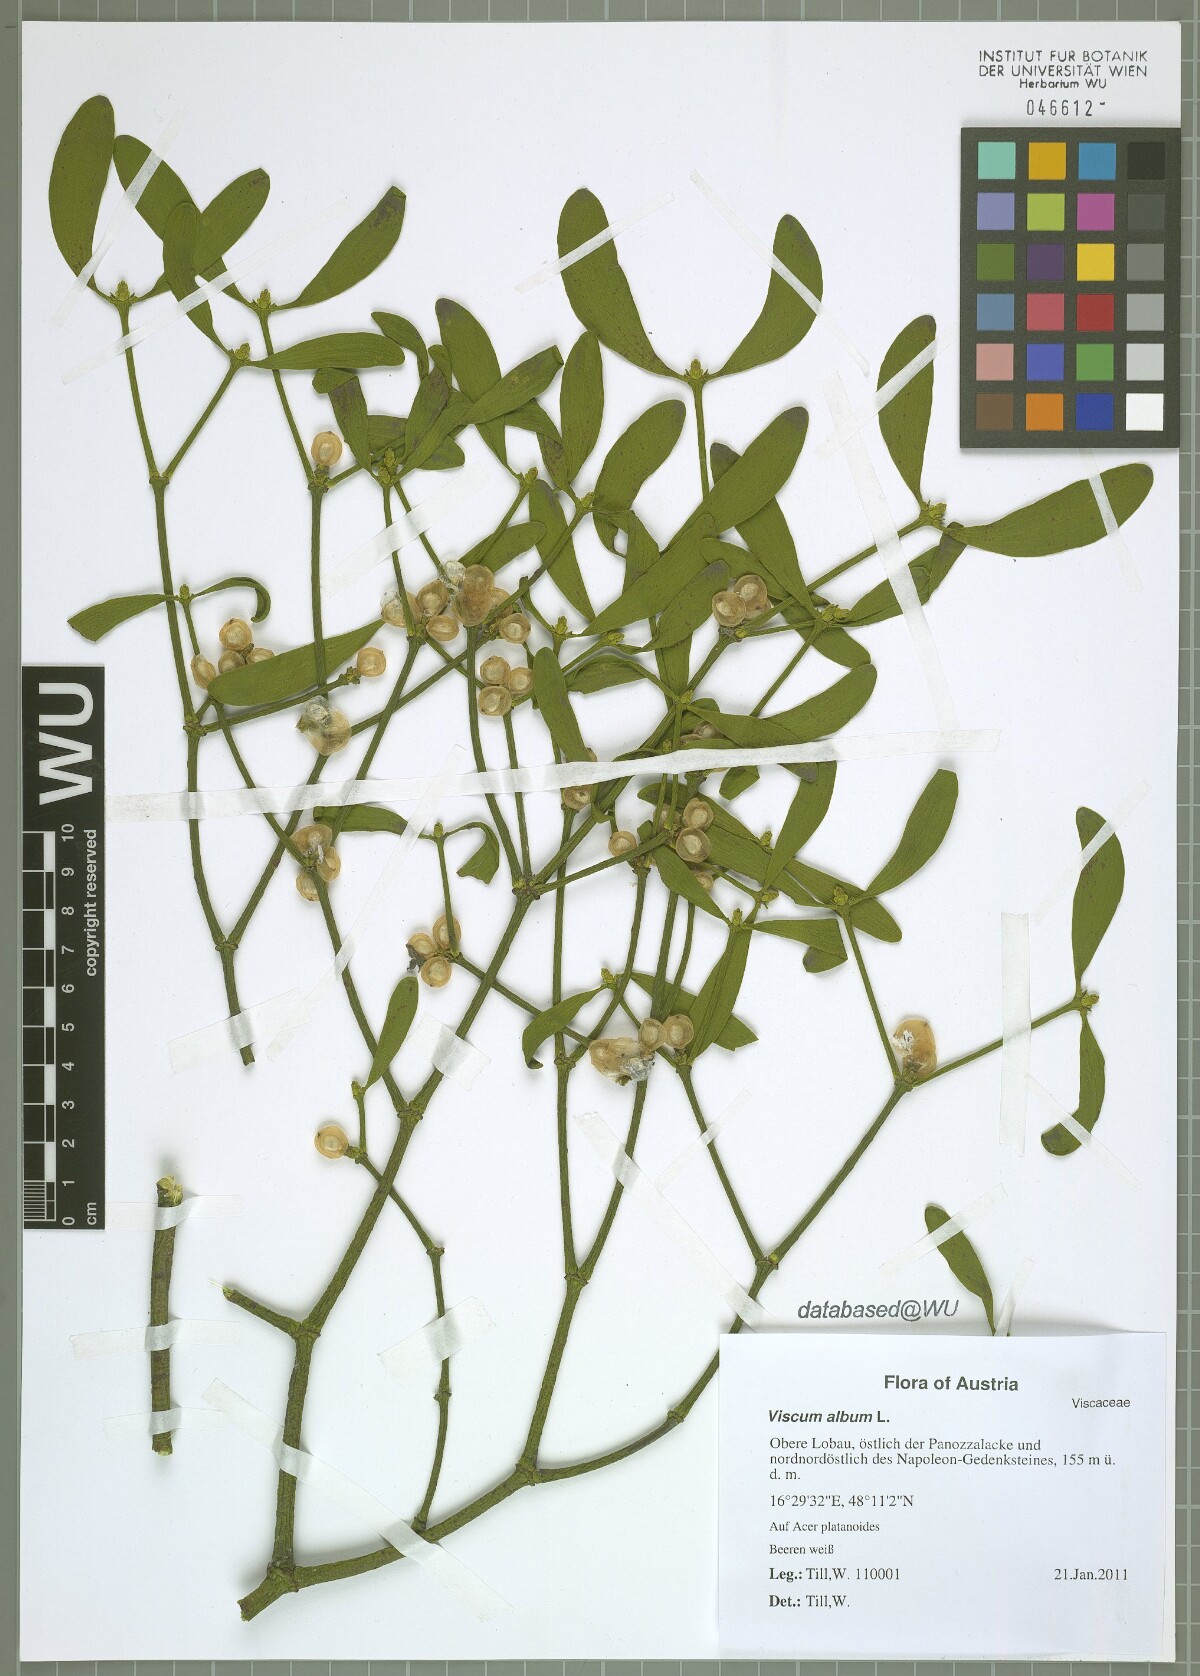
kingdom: Plantae
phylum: Tracheophyta
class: Magnoliopsida
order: Santalales
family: Viscaceae
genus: Viscum
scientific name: Viscum album
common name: Mistletoe
